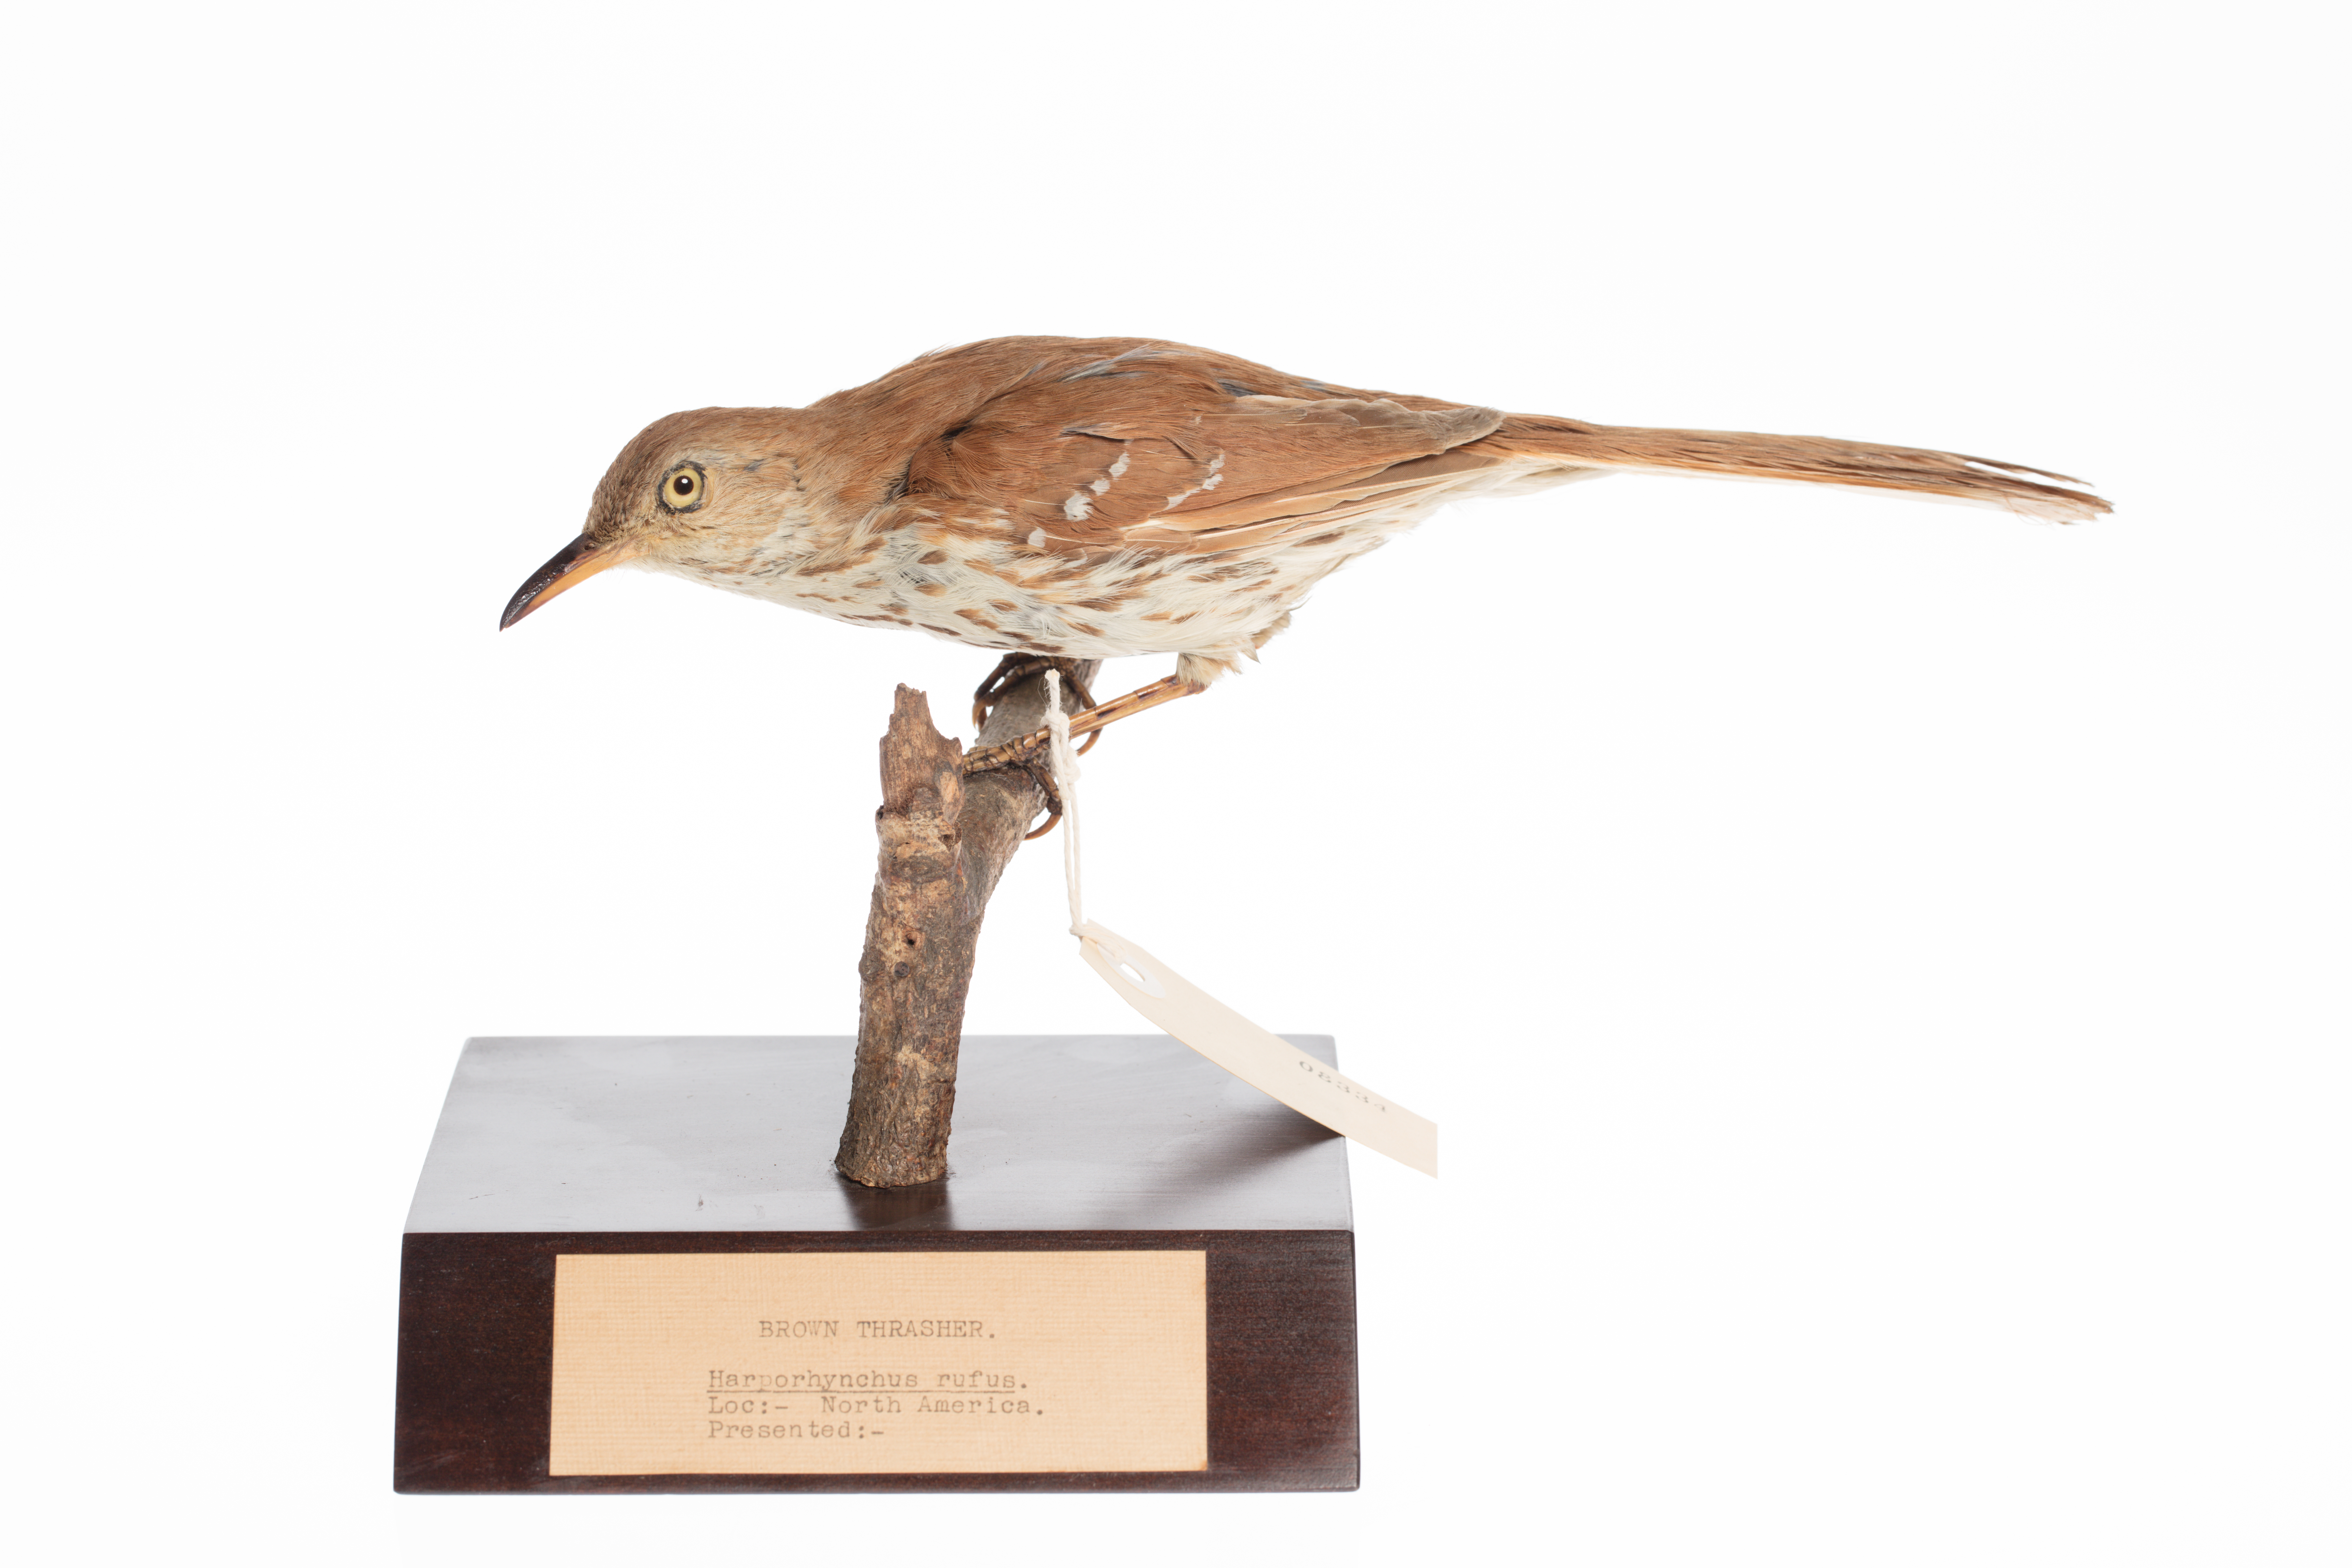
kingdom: Animalia
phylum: Chordata
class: Aves
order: Passeriformes
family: Mimidae
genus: Toxostoma
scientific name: Toxostoma rufum
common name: Brown thrasher
